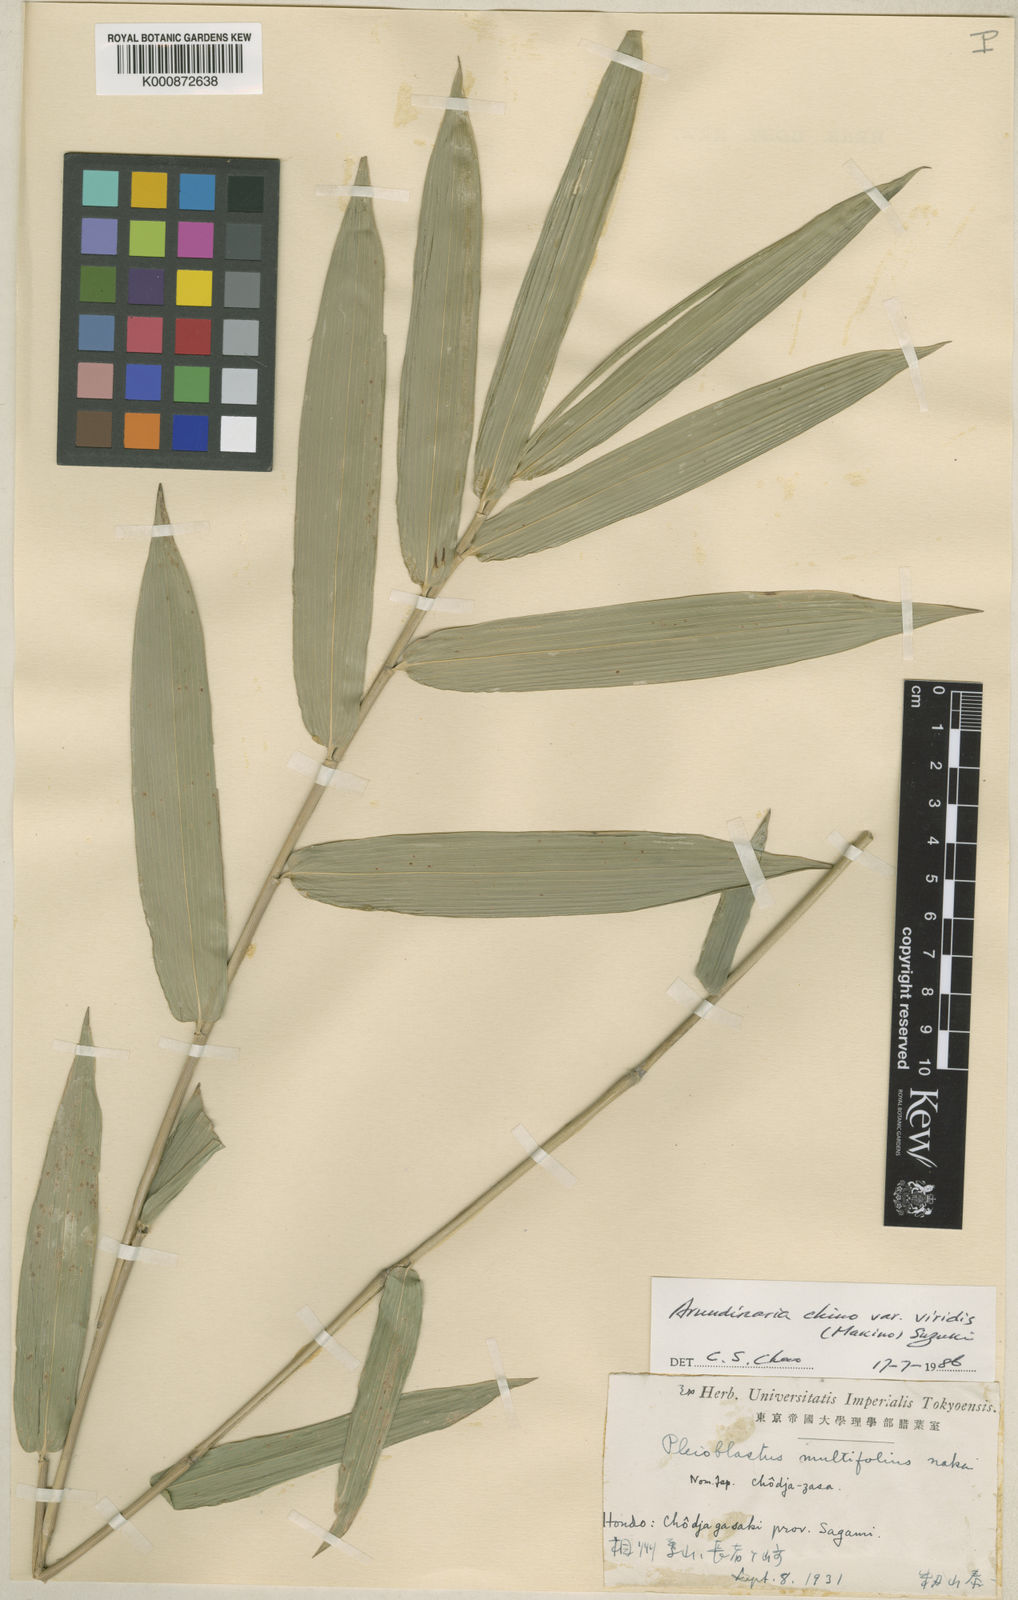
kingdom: Plantae
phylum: Tracheophyta
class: Liliopsida
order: Poales
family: Poaceae
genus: Pleioblastus
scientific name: Pleioblastus argenteostriatus
